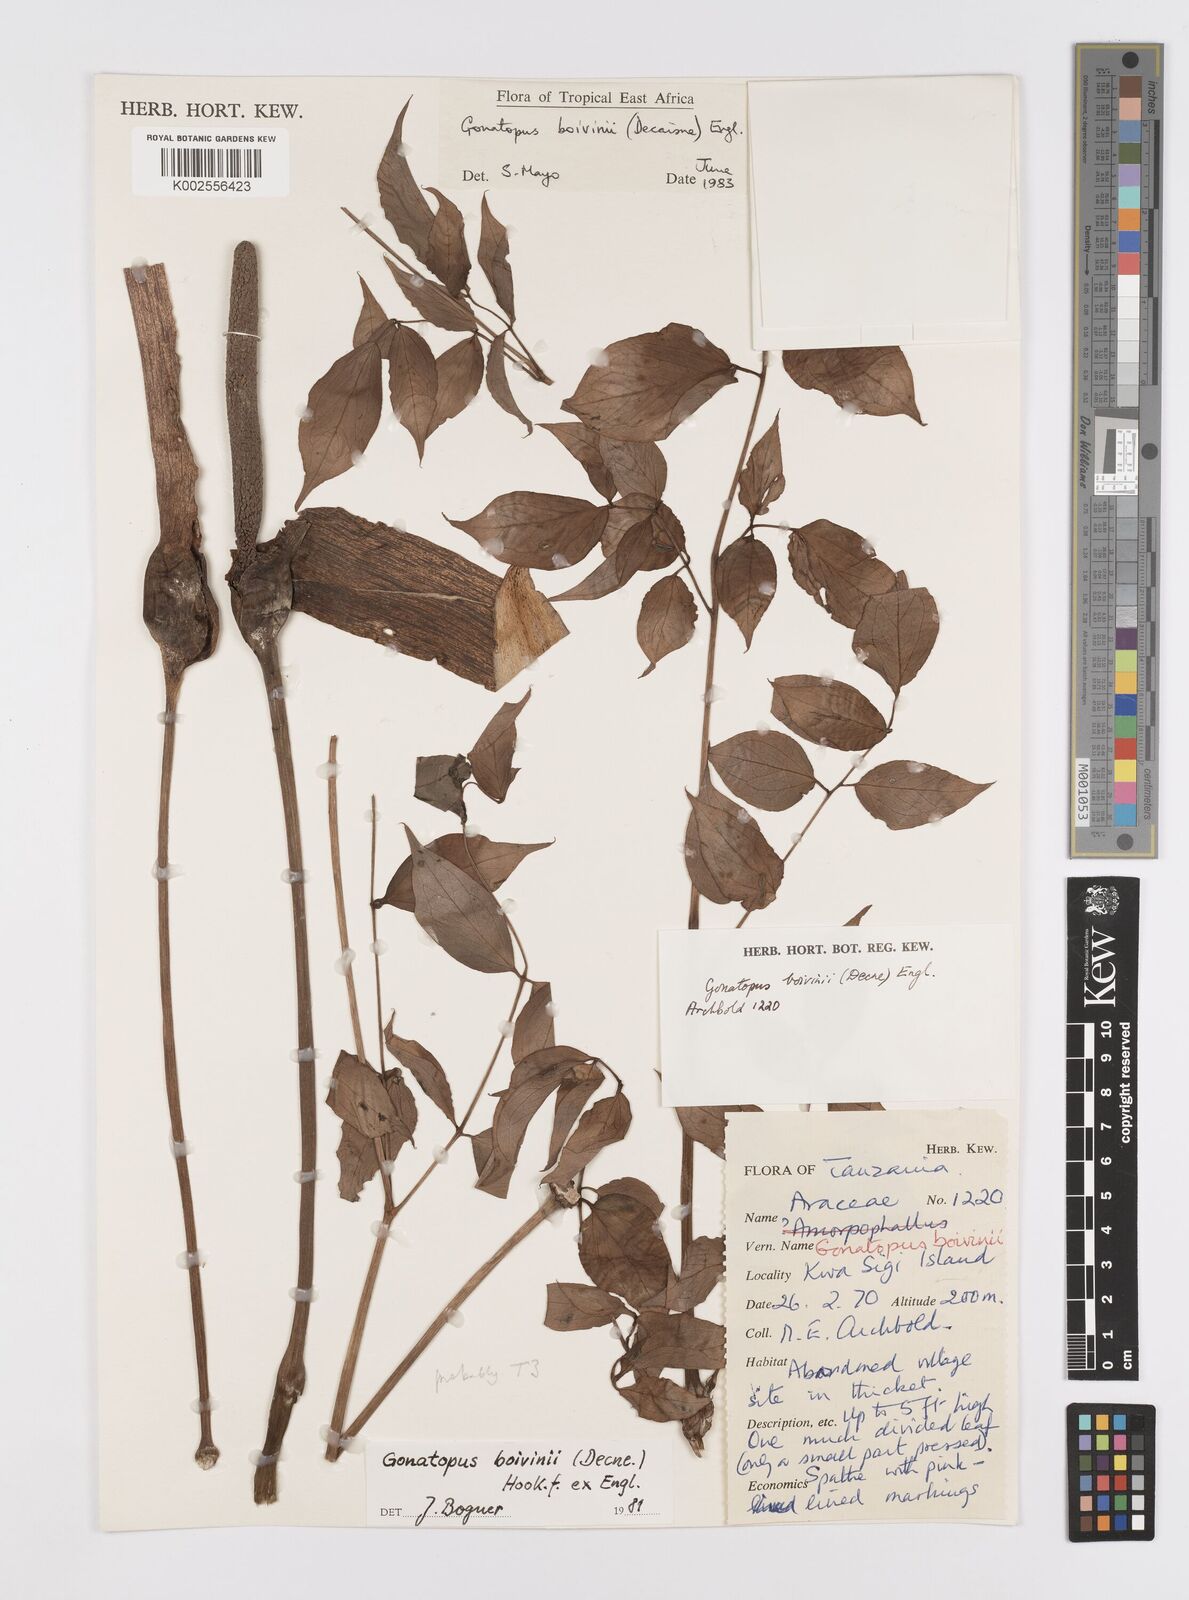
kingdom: Plantae
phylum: Tracheophyta
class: Liliopsida
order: Alismatales
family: Araceae
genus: Gonatopus
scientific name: Gonatopus boivinii
